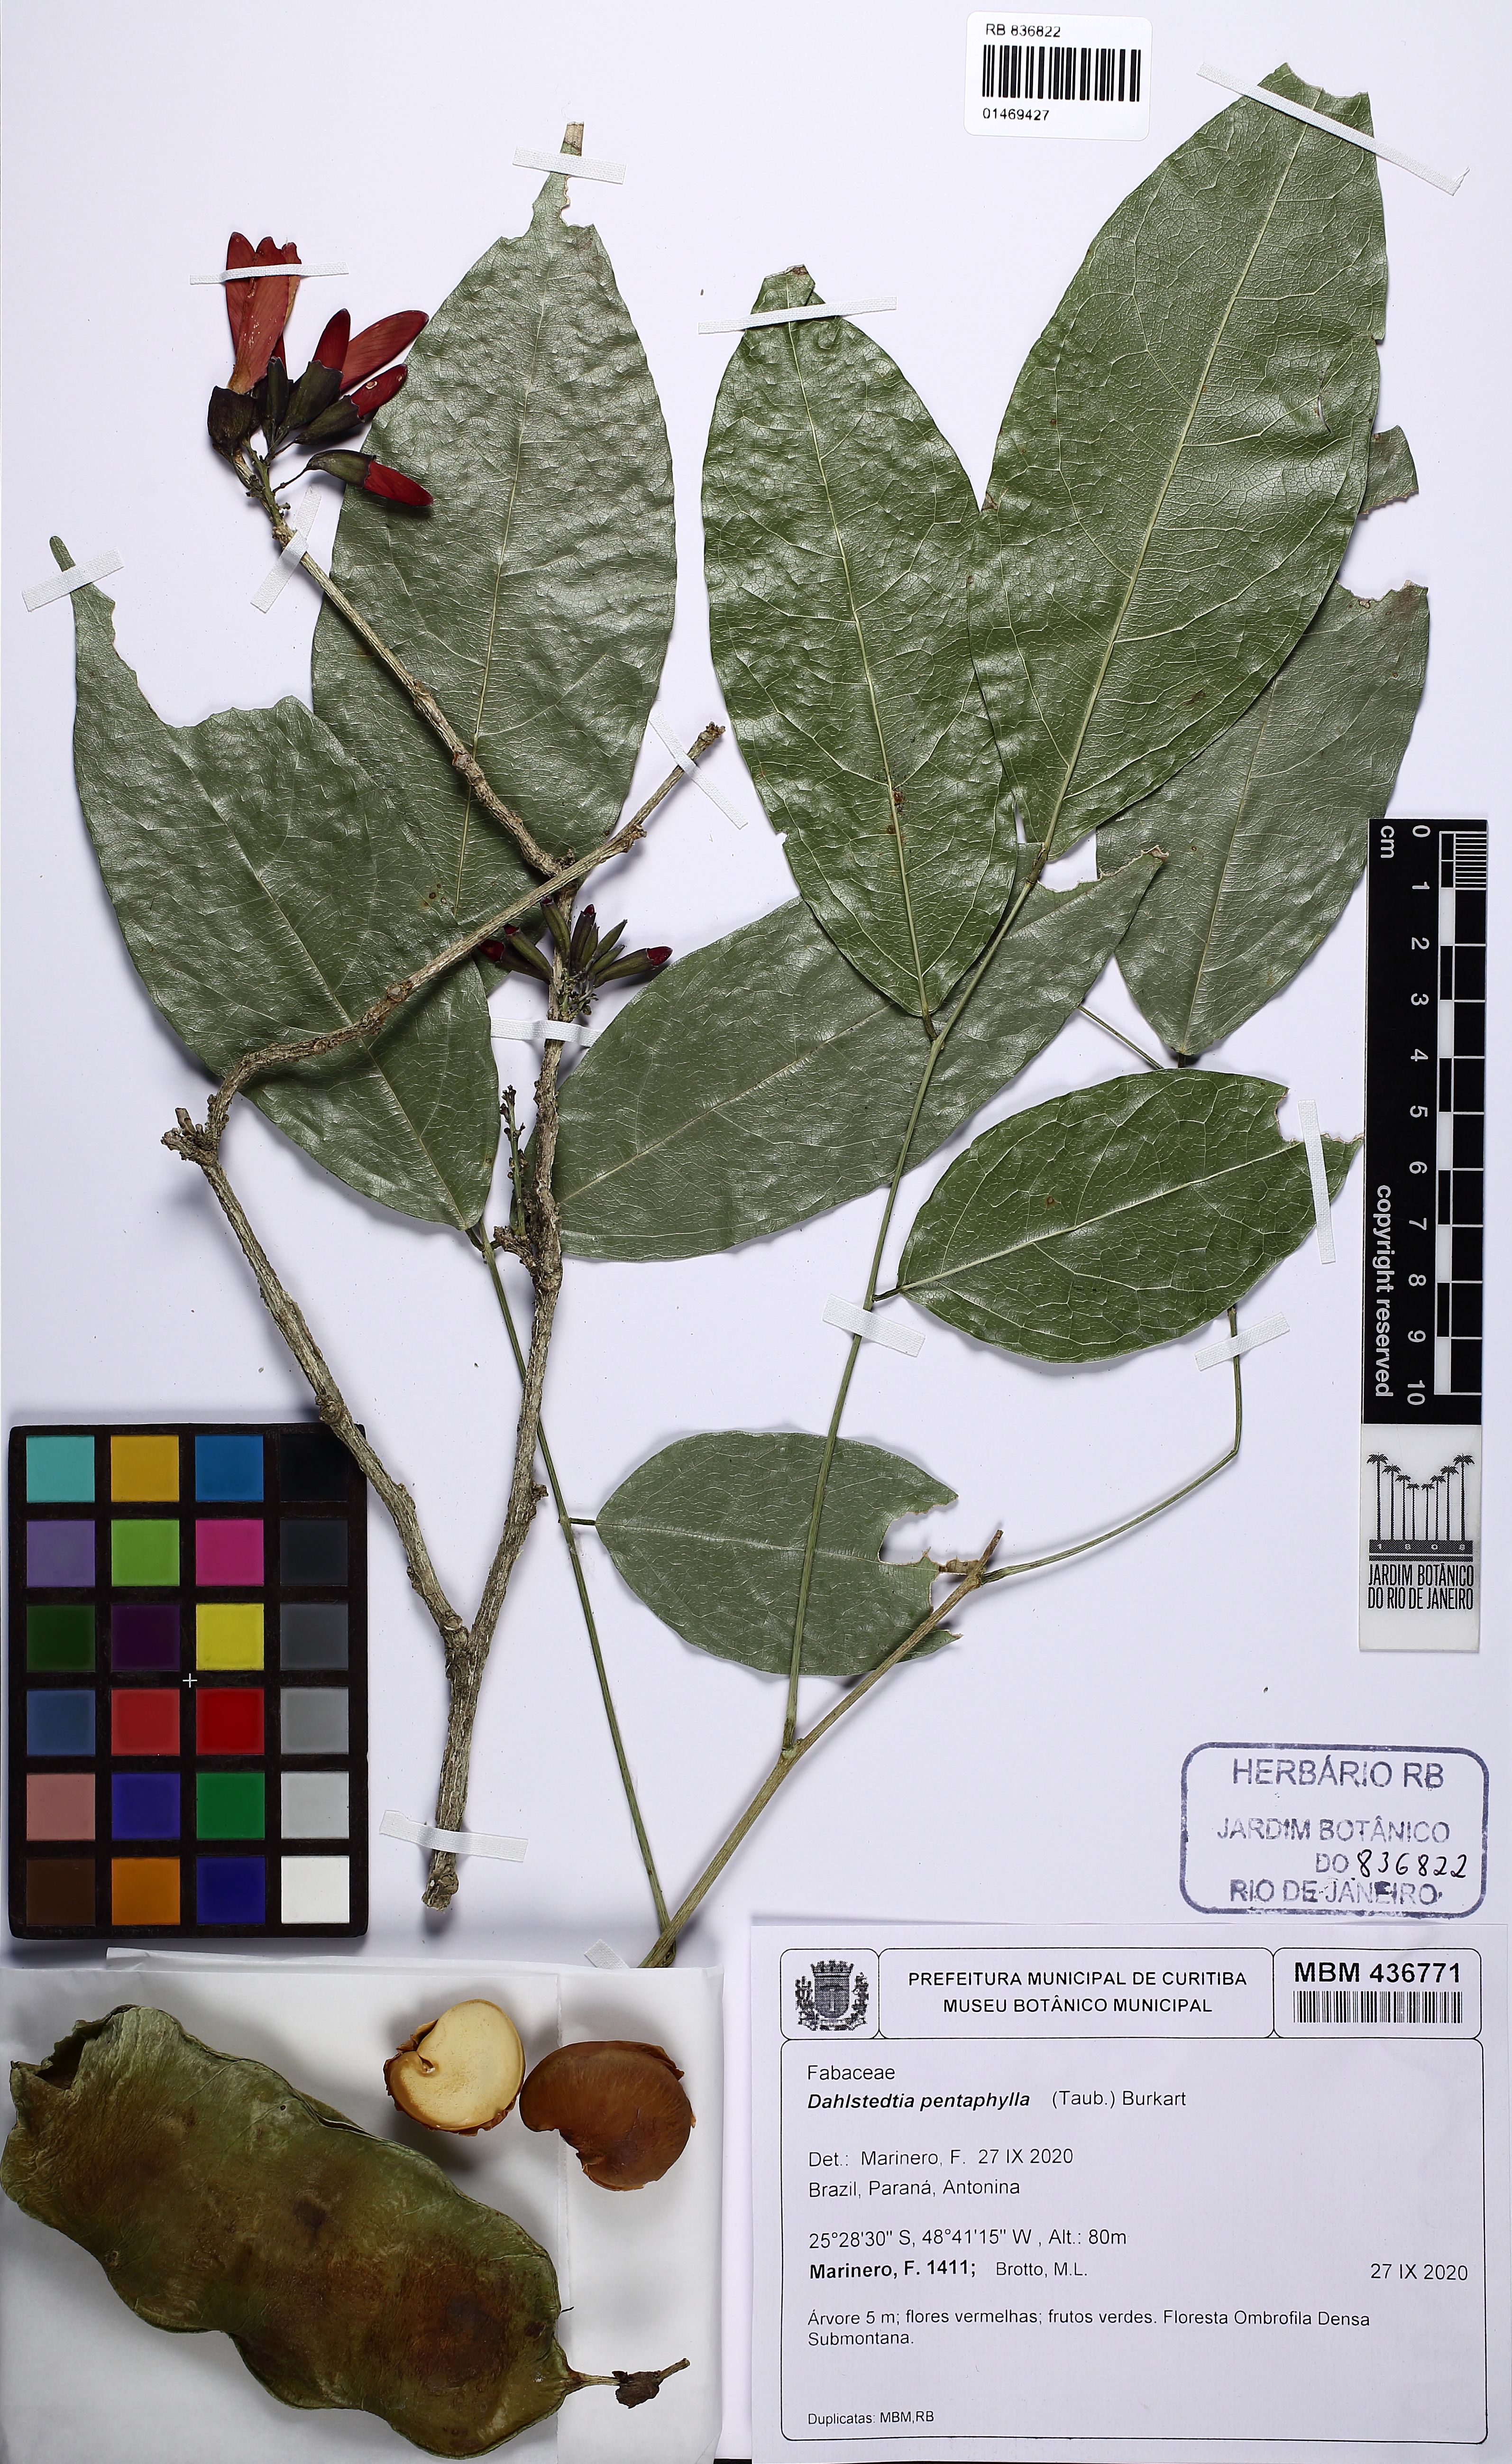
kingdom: Plantae
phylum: Tracheophyta
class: Magnoliopsida
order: Fabales
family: Fabaceae
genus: Dahlstedtia
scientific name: Dahlstedtia pentaphylla
